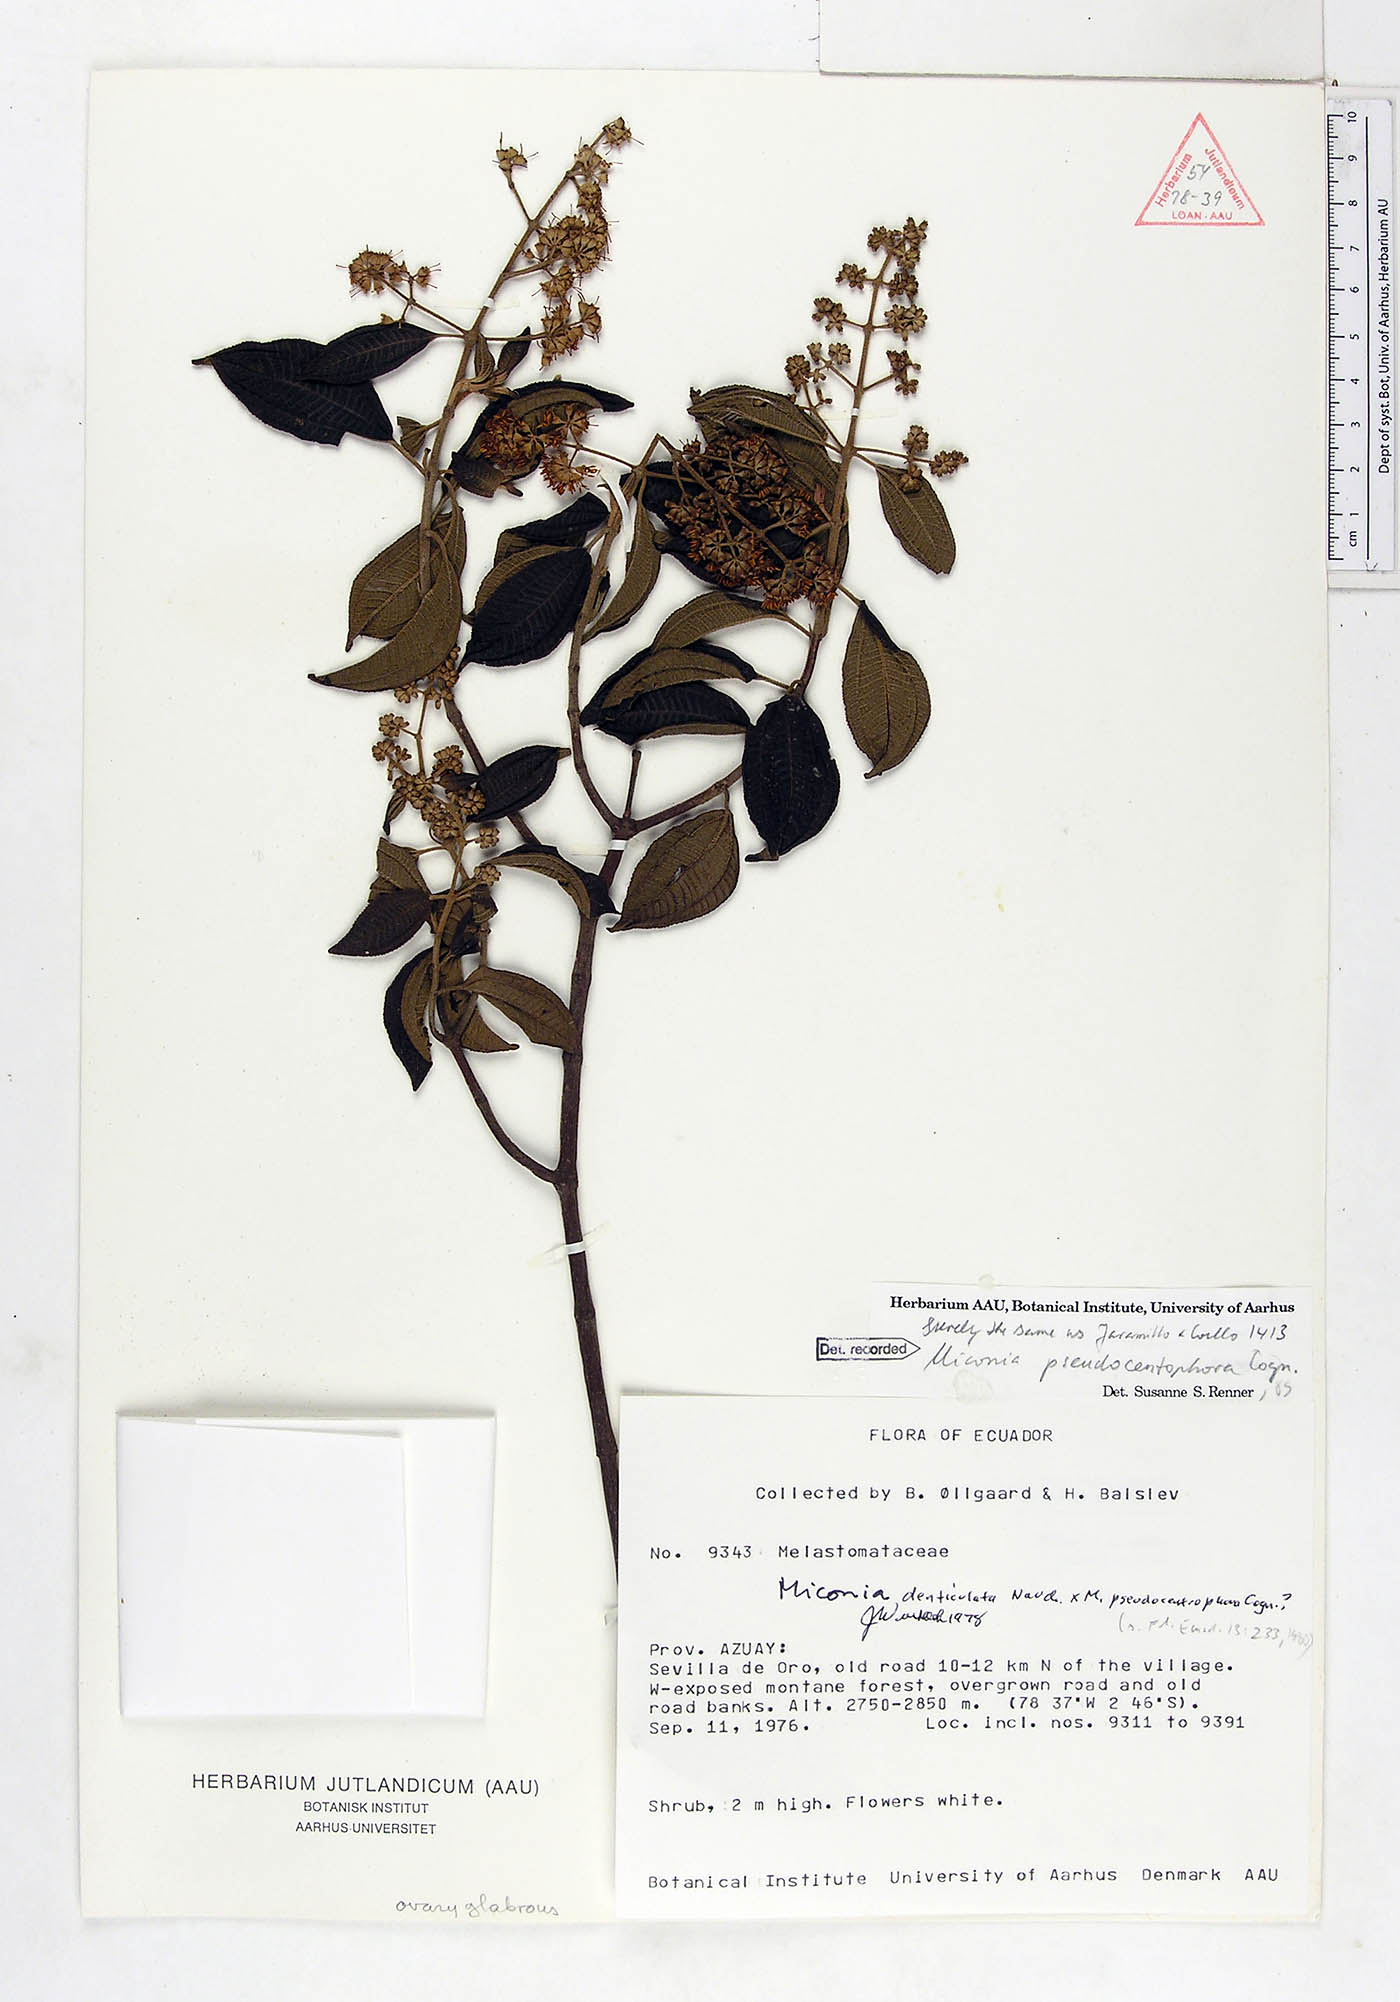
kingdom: Plantae
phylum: Tracheophyta
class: Magnoliopsida
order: Myrtales
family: Melastomataceae
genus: Miconia
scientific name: Miconia pseudocentrophora
